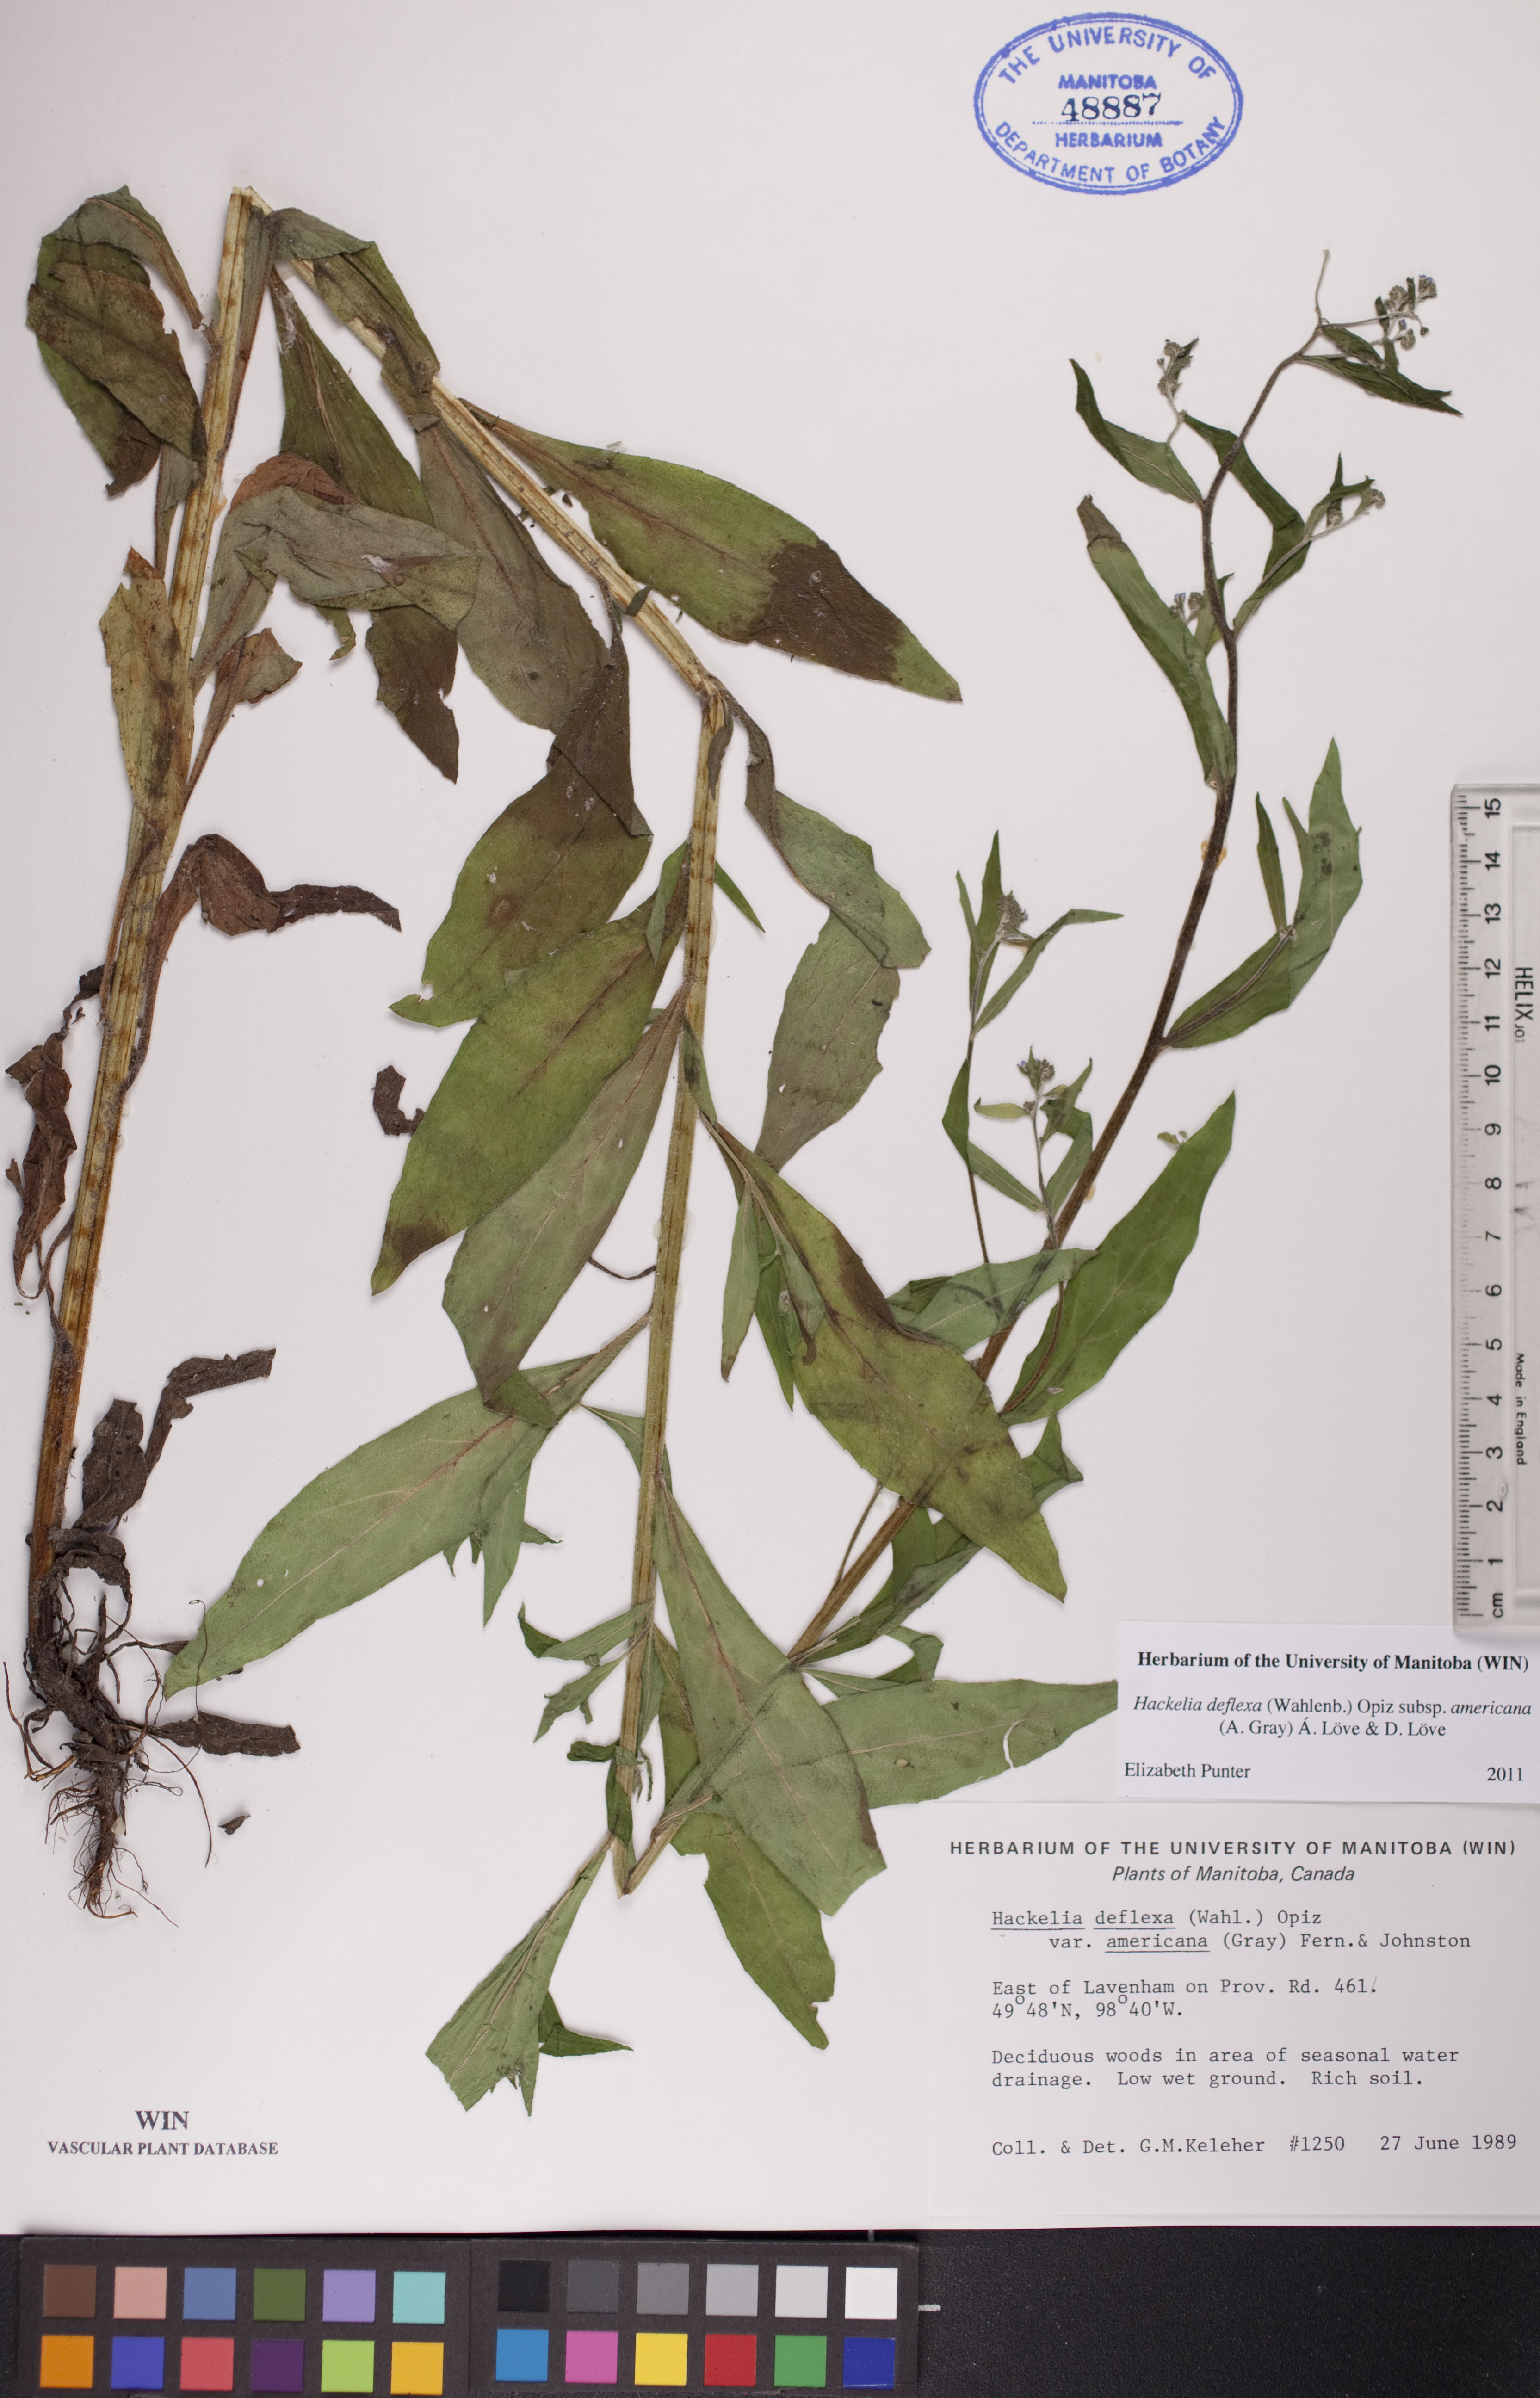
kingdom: Plantae
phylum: Tracheophyta
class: Magnoliopsida
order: Boraginales
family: Boraginaceae
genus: Hackelia
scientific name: Hackelia deflexa
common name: Nodding stickseed
